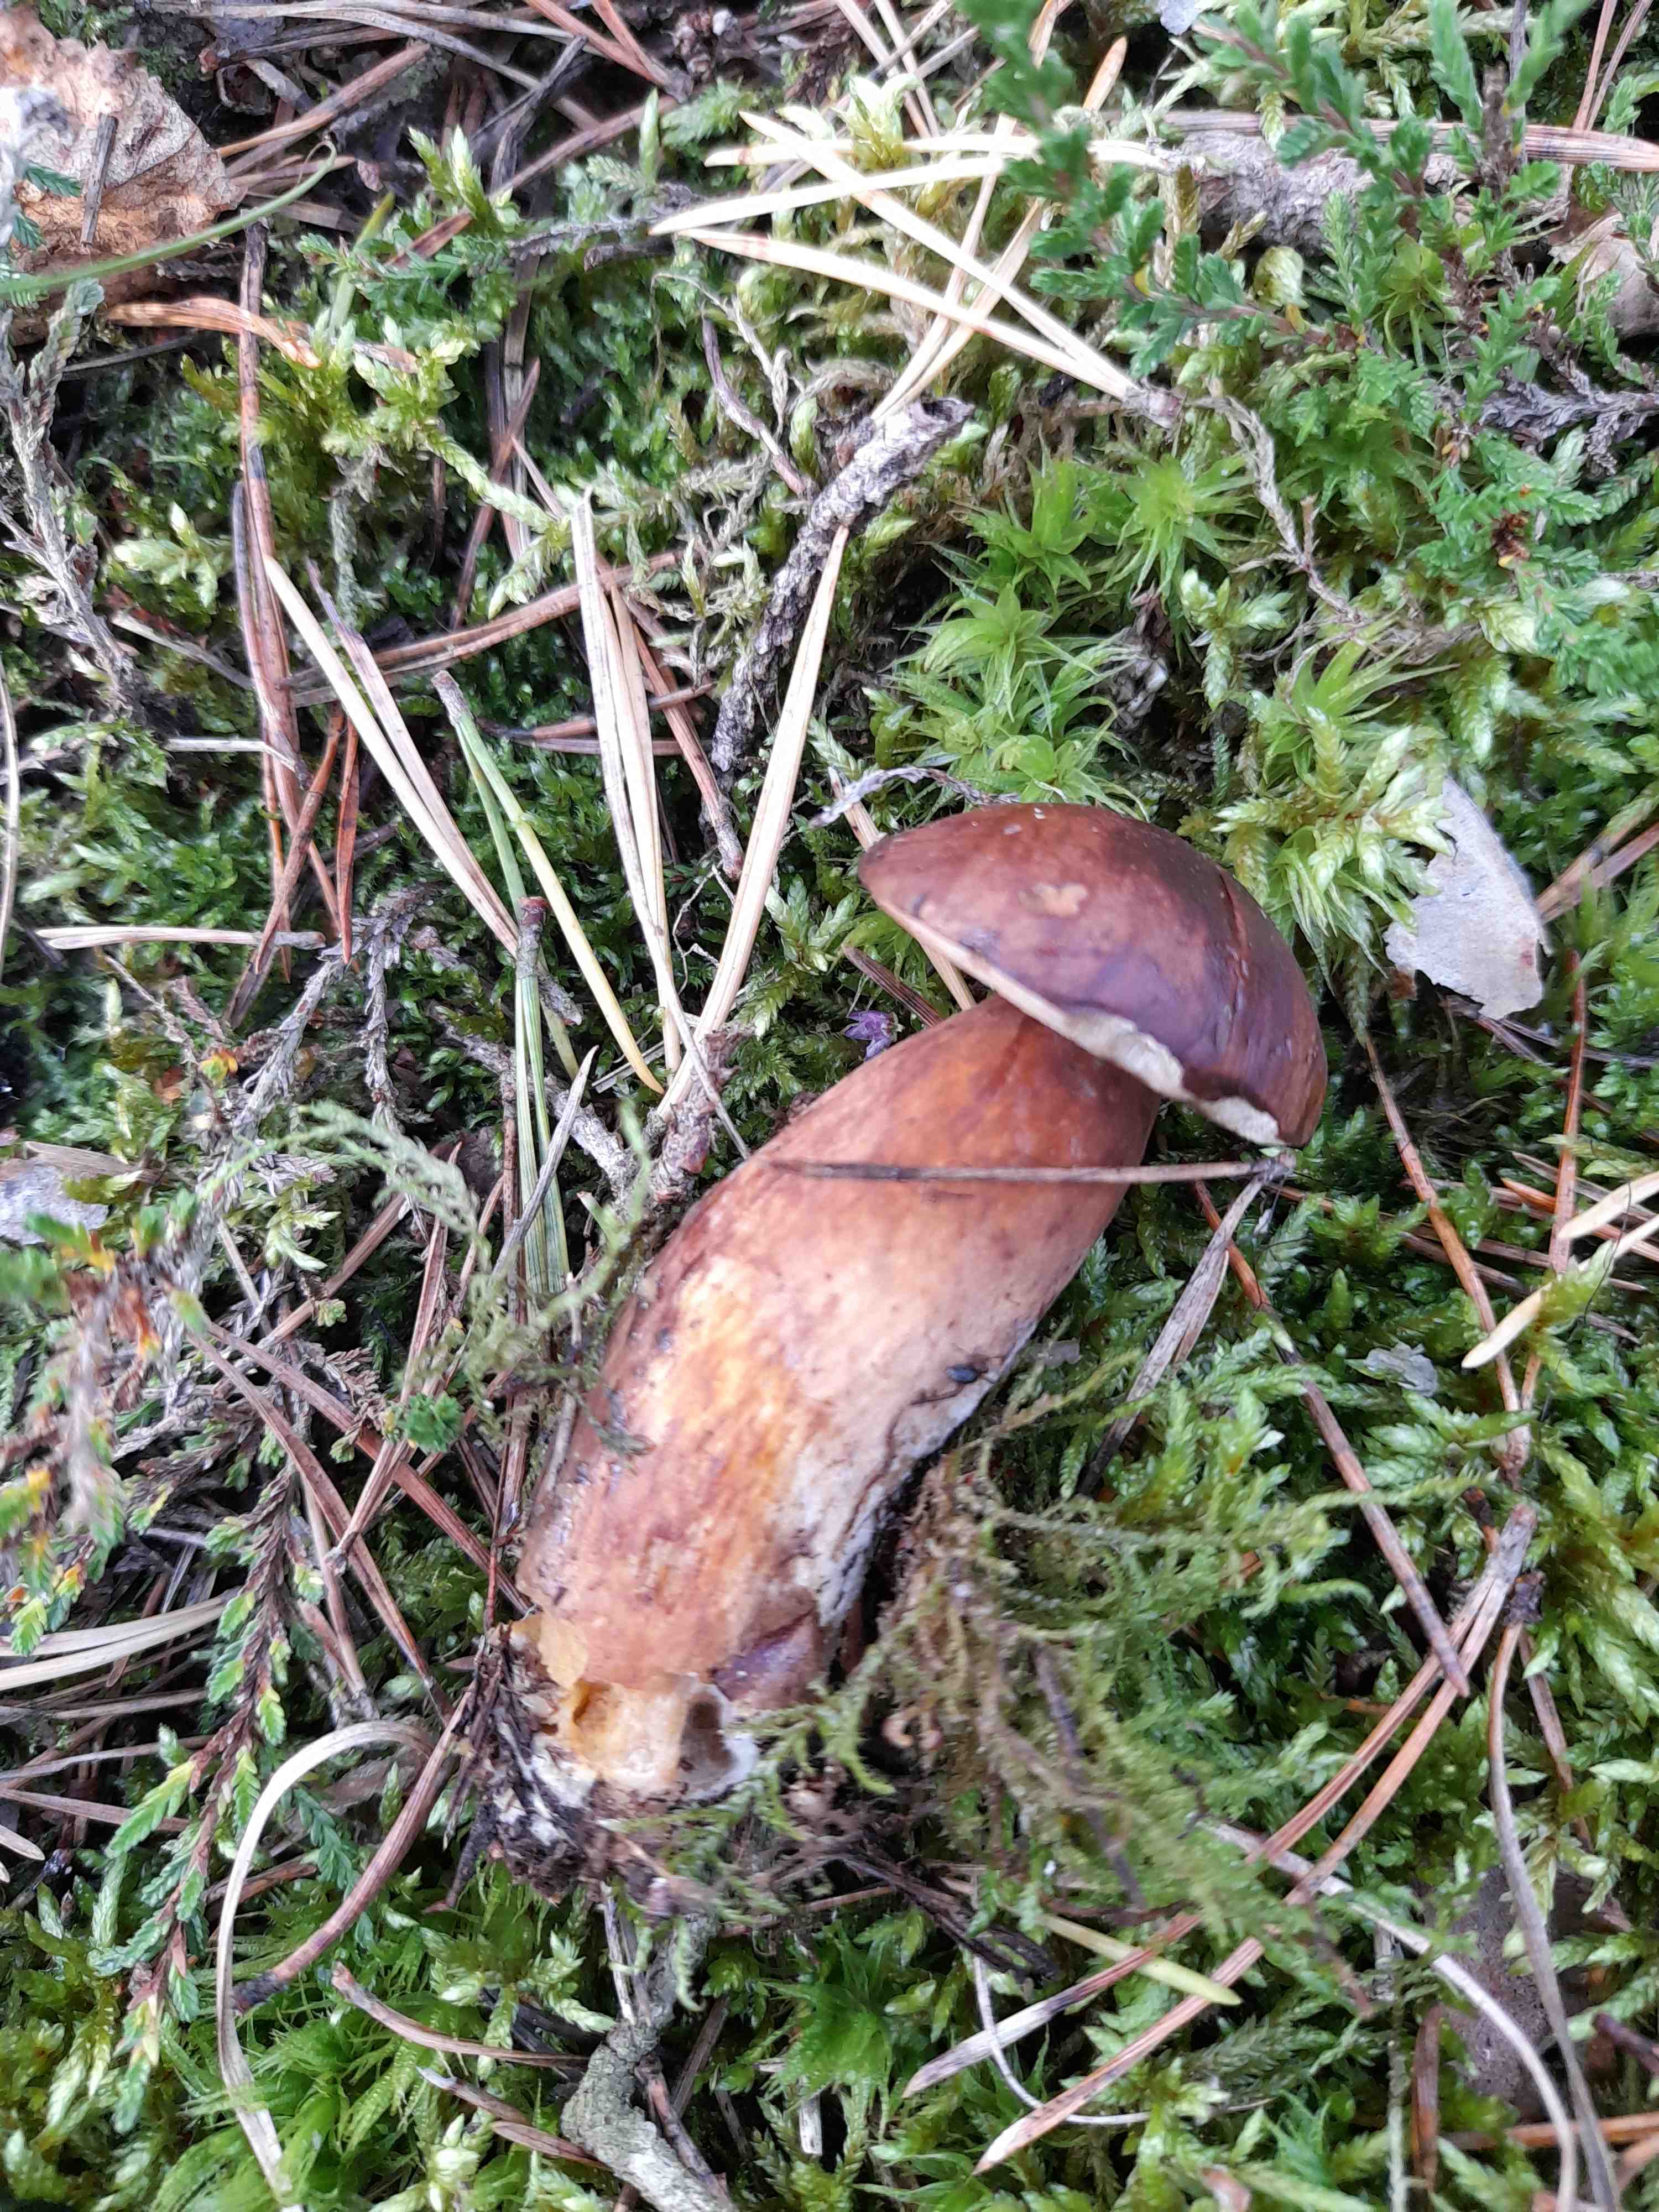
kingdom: Fungi
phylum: Basidiomycota
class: Agaricomycetes
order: Boletales
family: Boletaceae
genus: Imleria
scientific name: Imleria badia
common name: brunstokket rørhat
